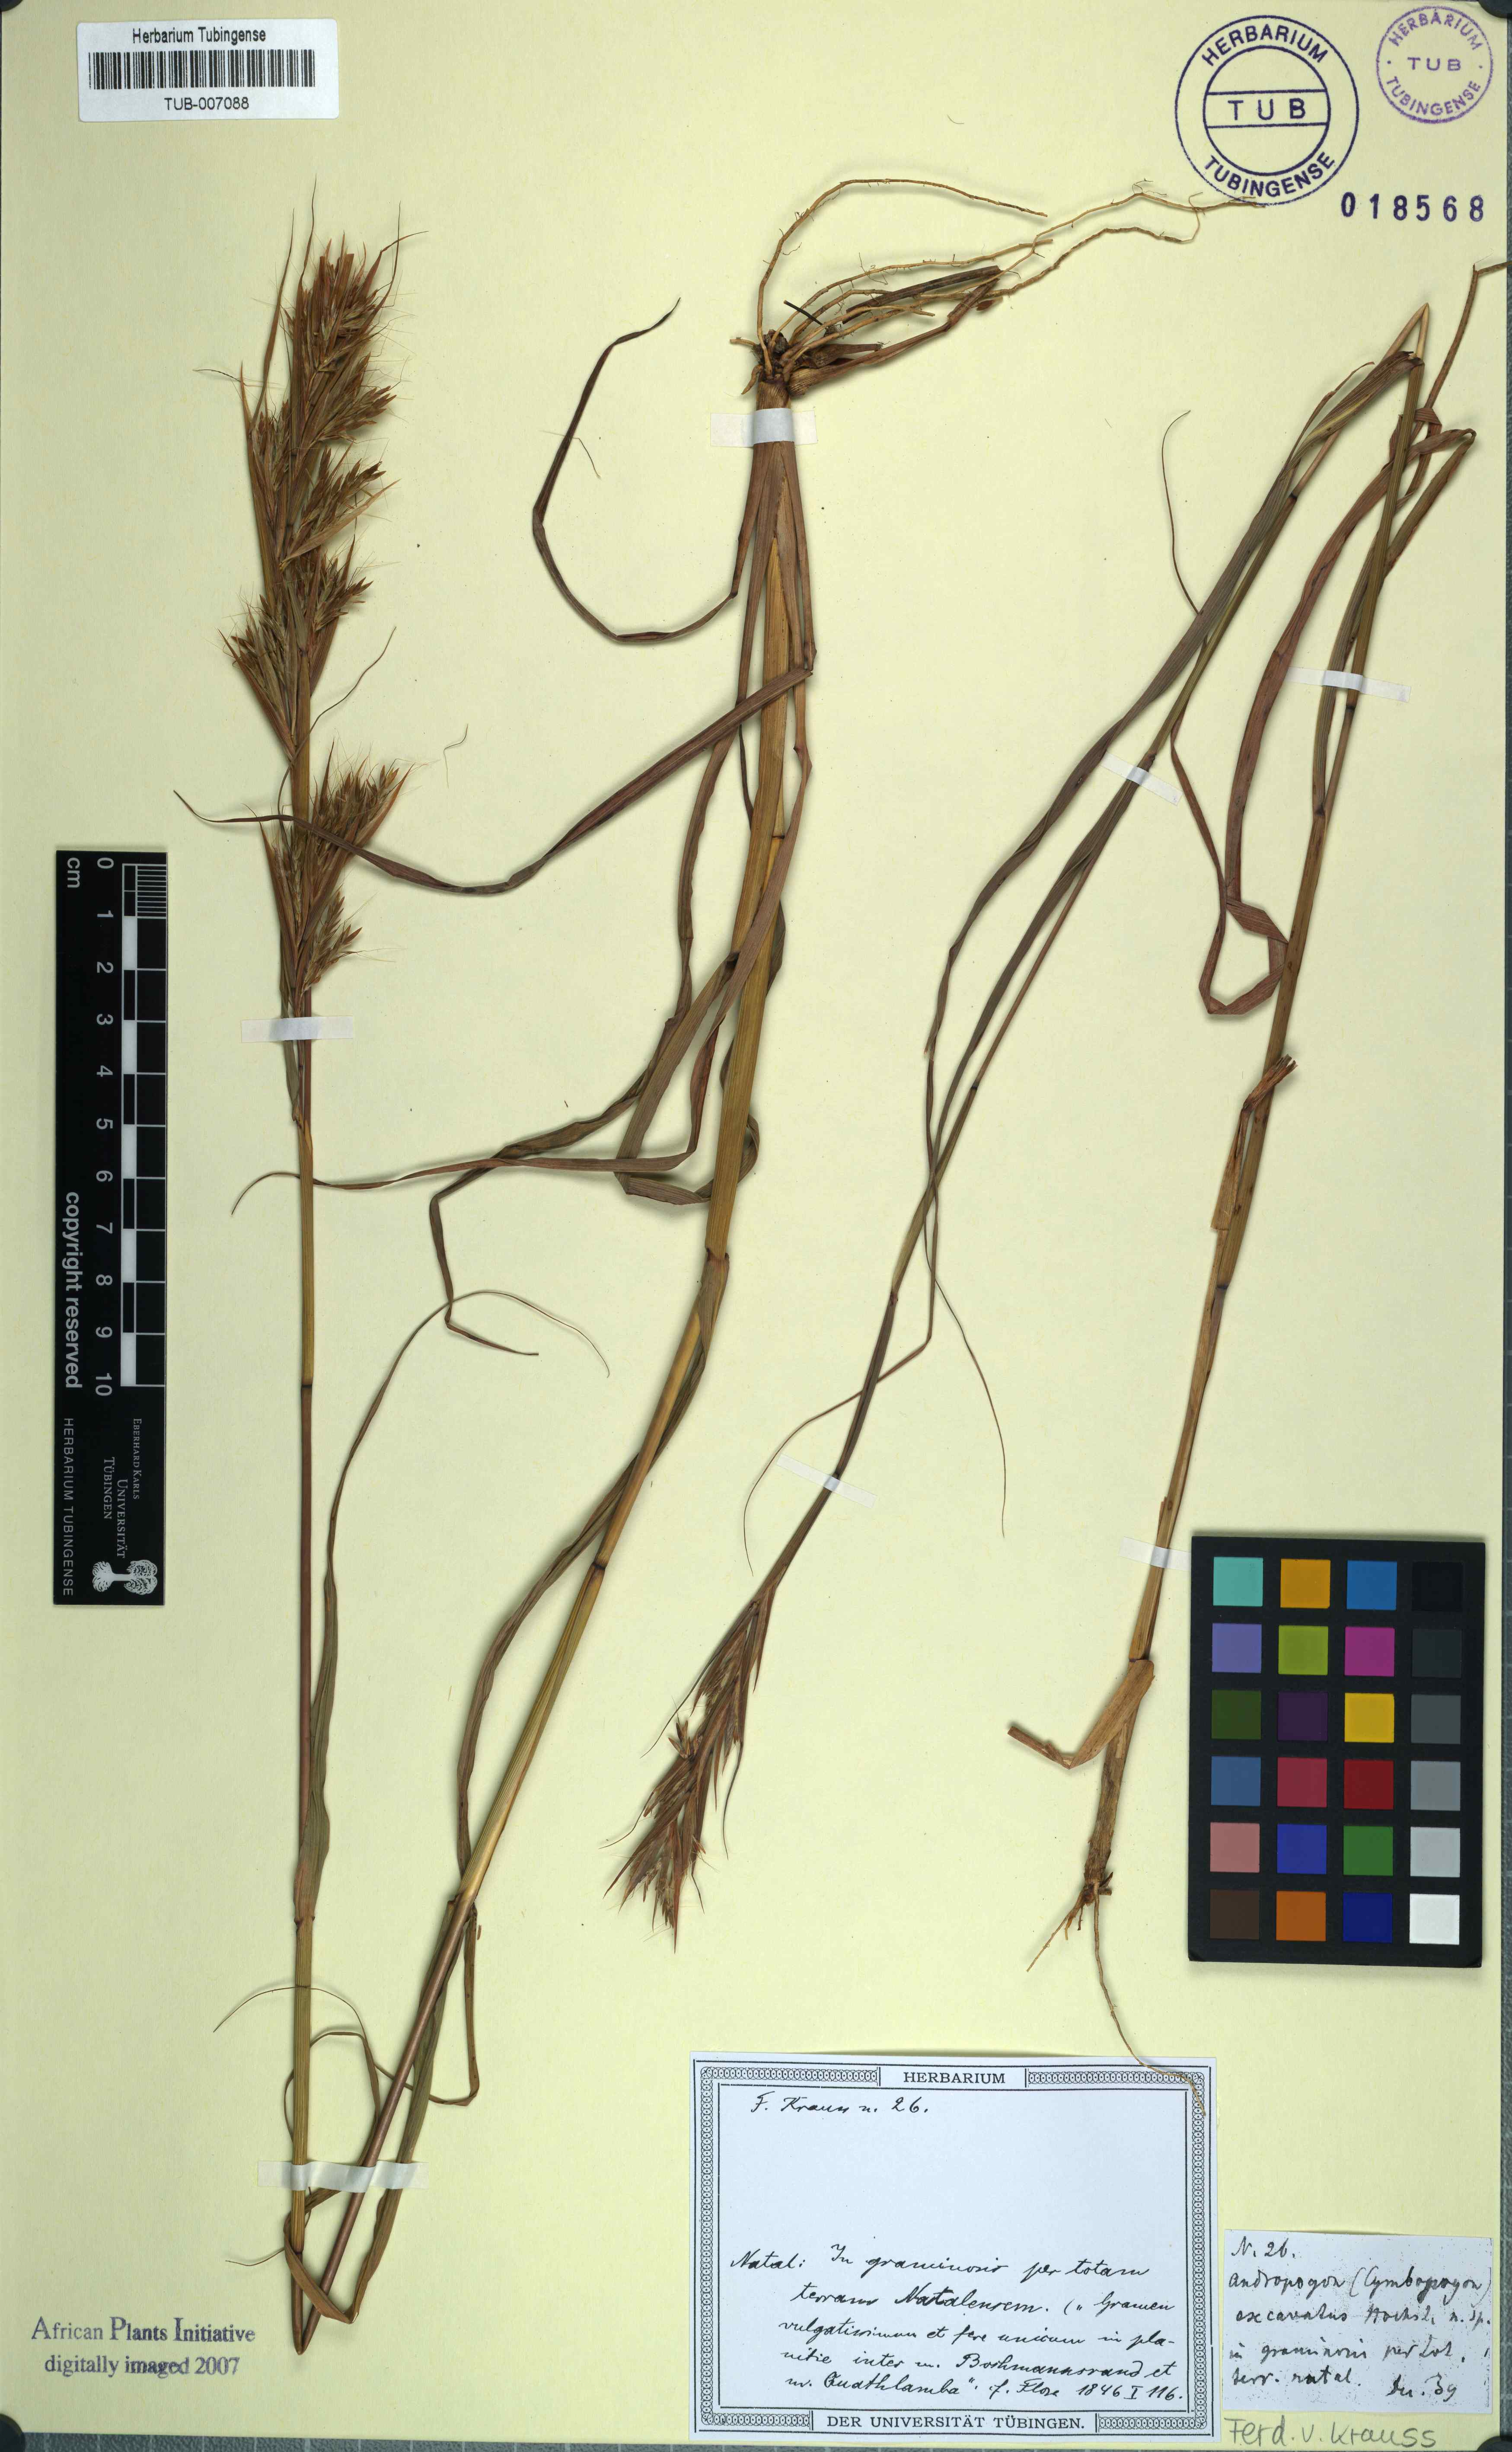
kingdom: Plantae
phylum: Tracheophyta
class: Liliopsida
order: Poales
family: Poaceae
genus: Cymbopogon
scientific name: Cymbopogon schoenanthus
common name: Geranium grass
